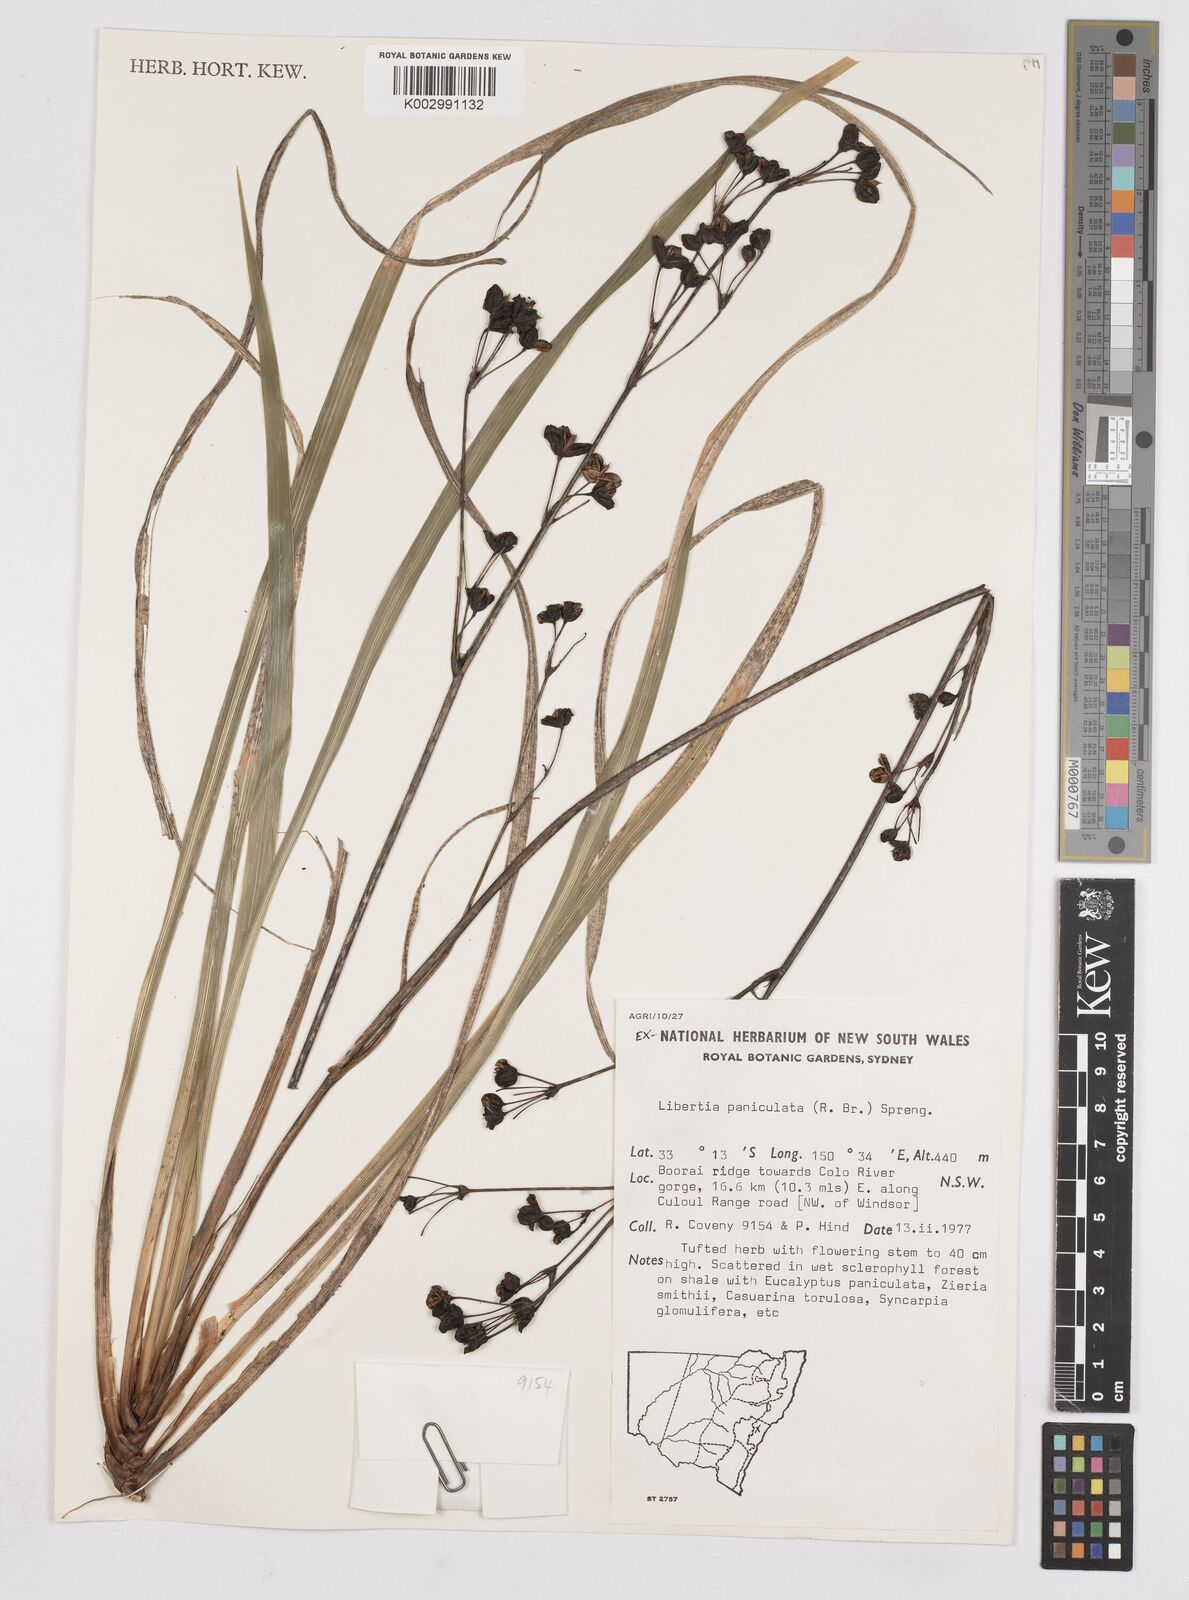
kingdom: Plantae
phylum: Tracheophyta
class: Liliopsida
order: Asparagales
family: Iridaceae
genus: Libertia
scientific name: Libertia paniculata
